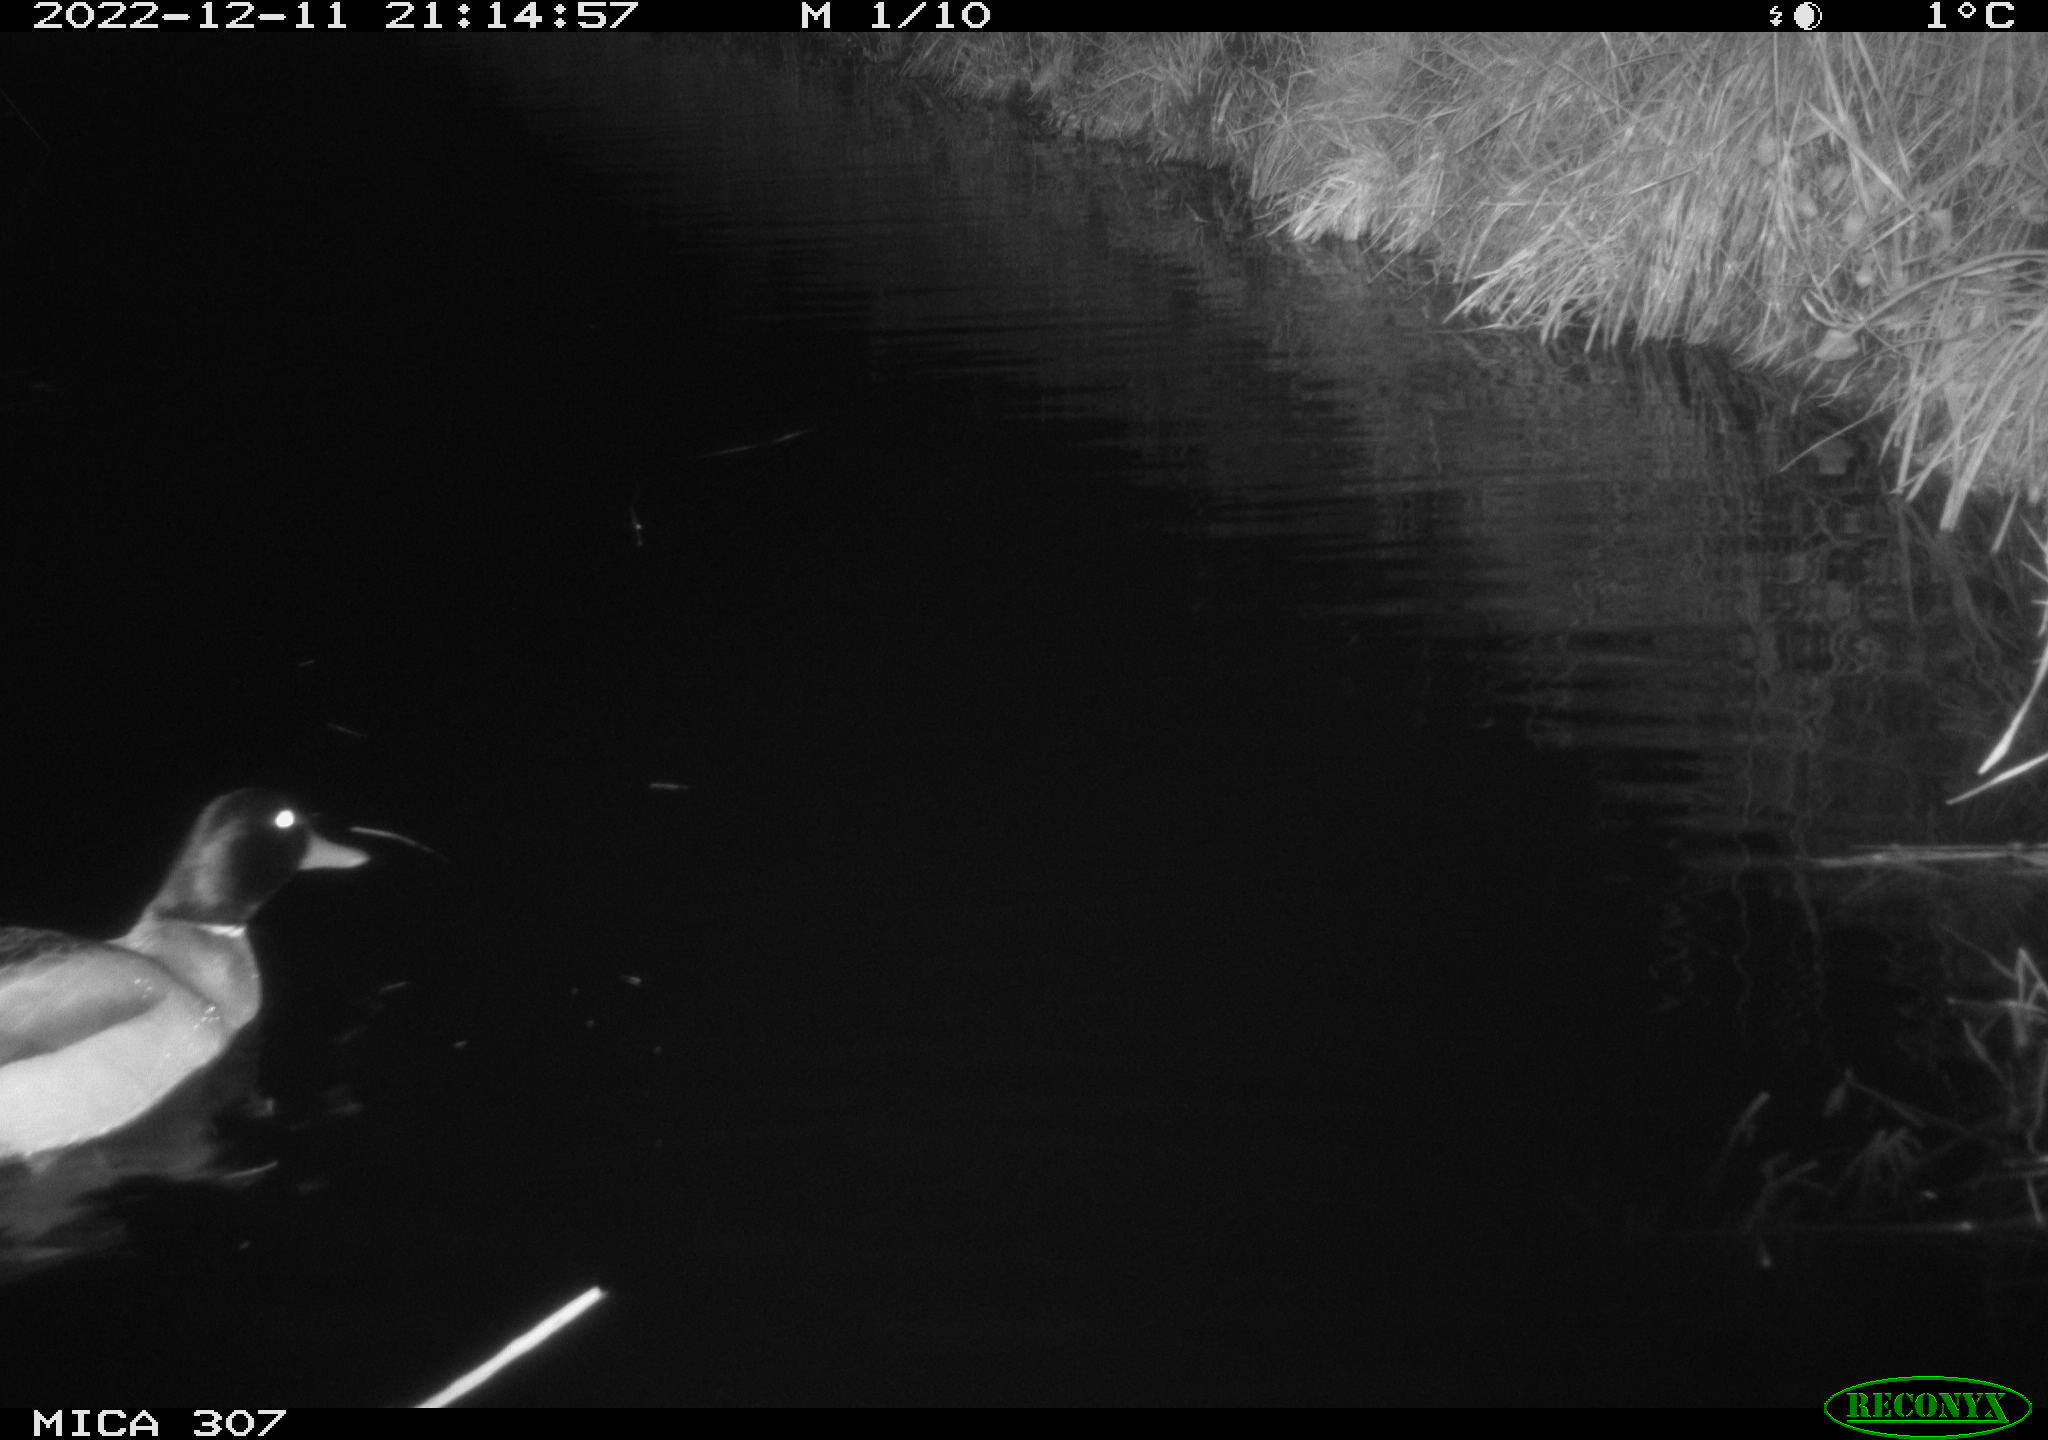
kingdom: Animalia
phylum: Chordata
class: Aves
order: Anseriformes
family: Anatidae
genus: Anas
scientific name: Anas
